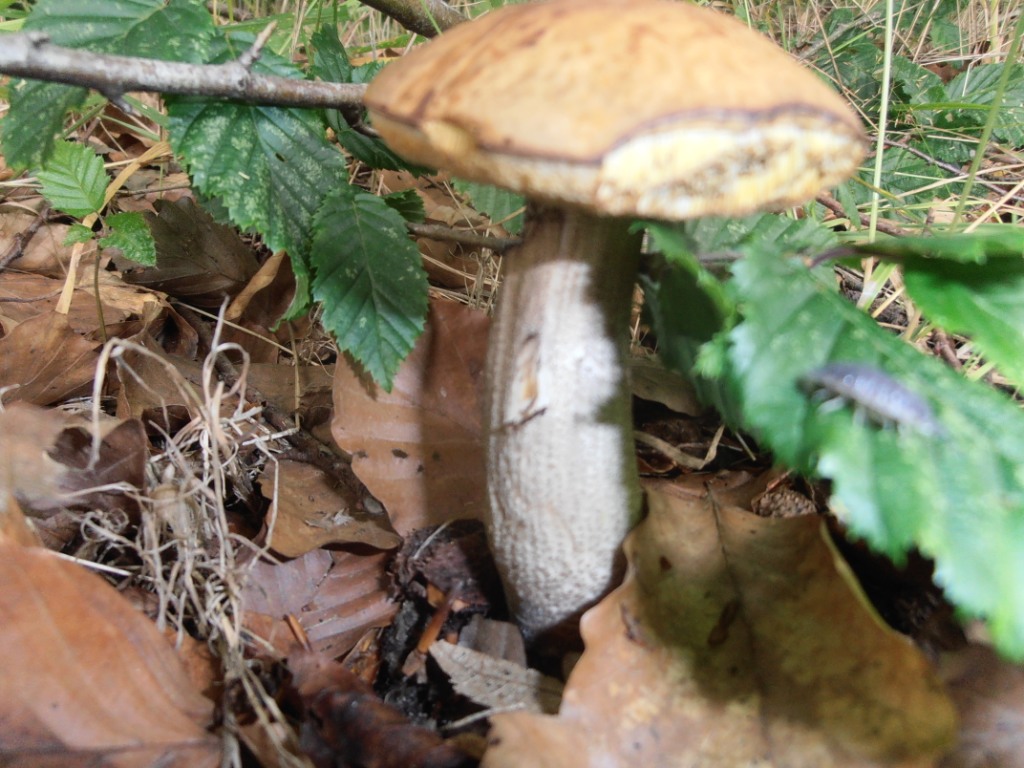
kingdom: Fungi
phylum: Basidiomycota
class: Agaricomycetes
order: Boletales
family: Boletaceae
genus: Leccinellum
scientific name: Leccinellum pseudoscabrum
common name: avnbøg-skælrørhat
